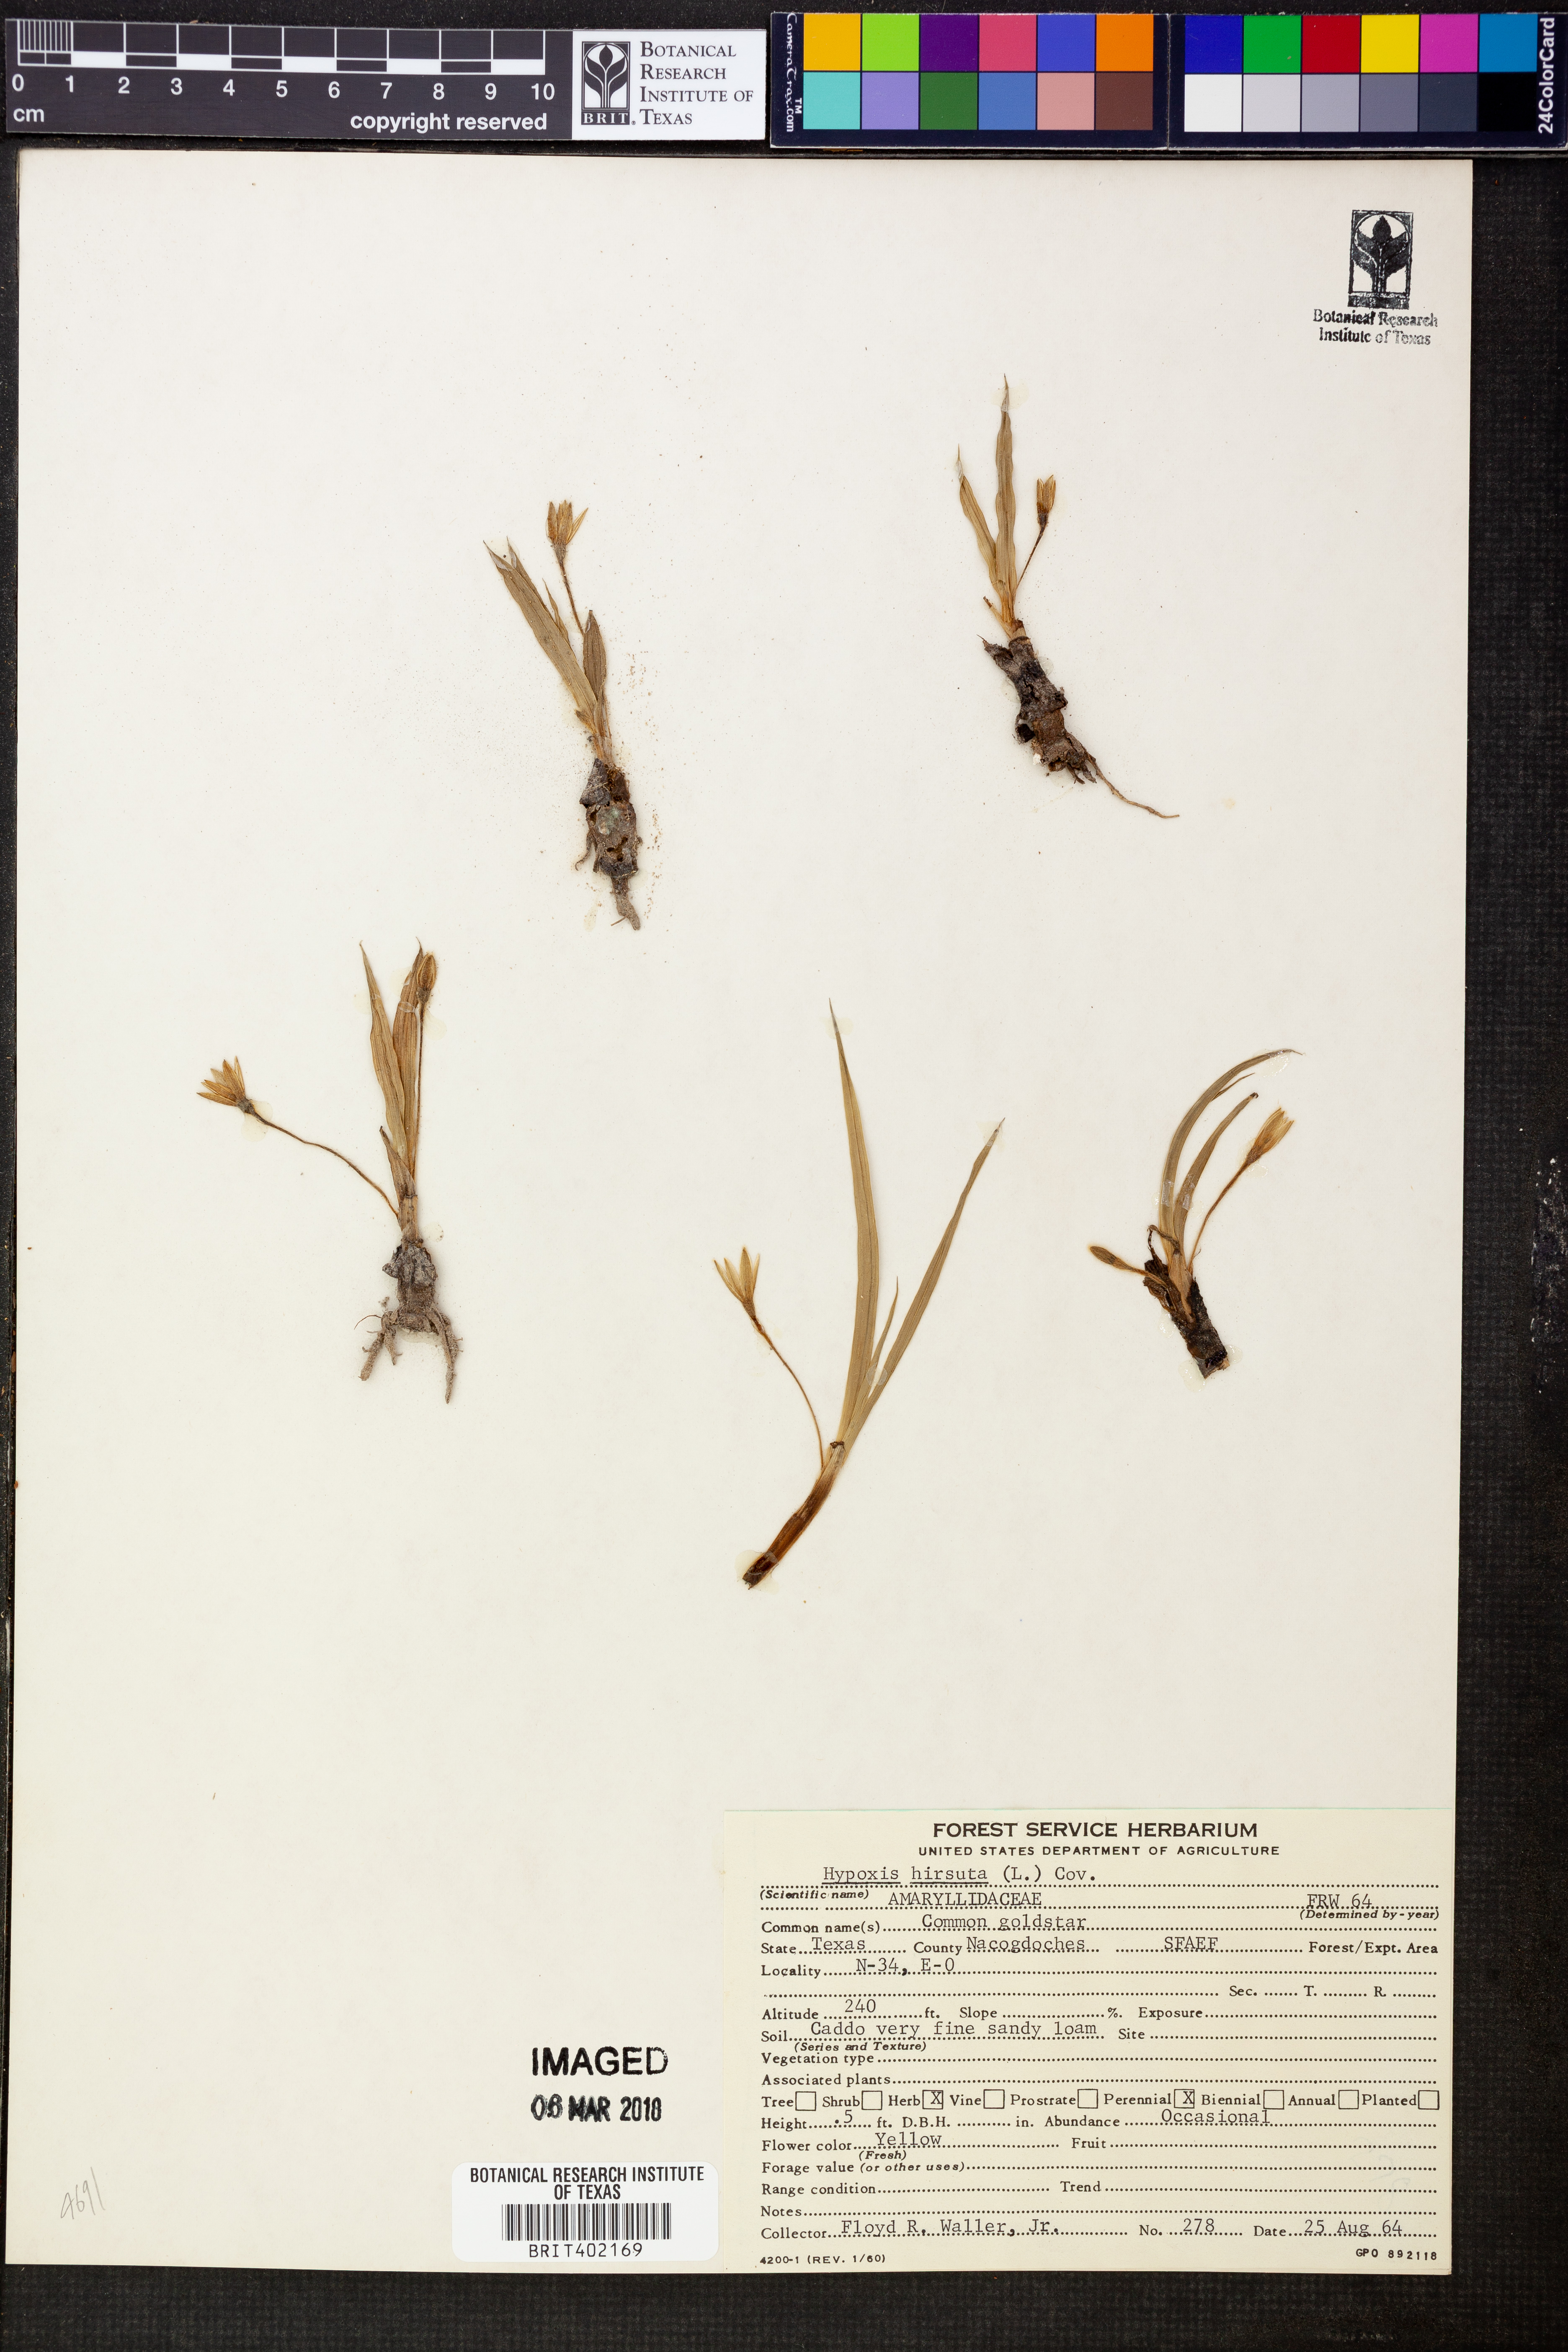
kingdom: Plantae
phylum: Tracheophyta
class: Liliopsida
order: Asparagales
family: Hypoxidaceae
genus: Hypoxis
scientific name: Hypoxis hirsuta
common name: Common goldstar
